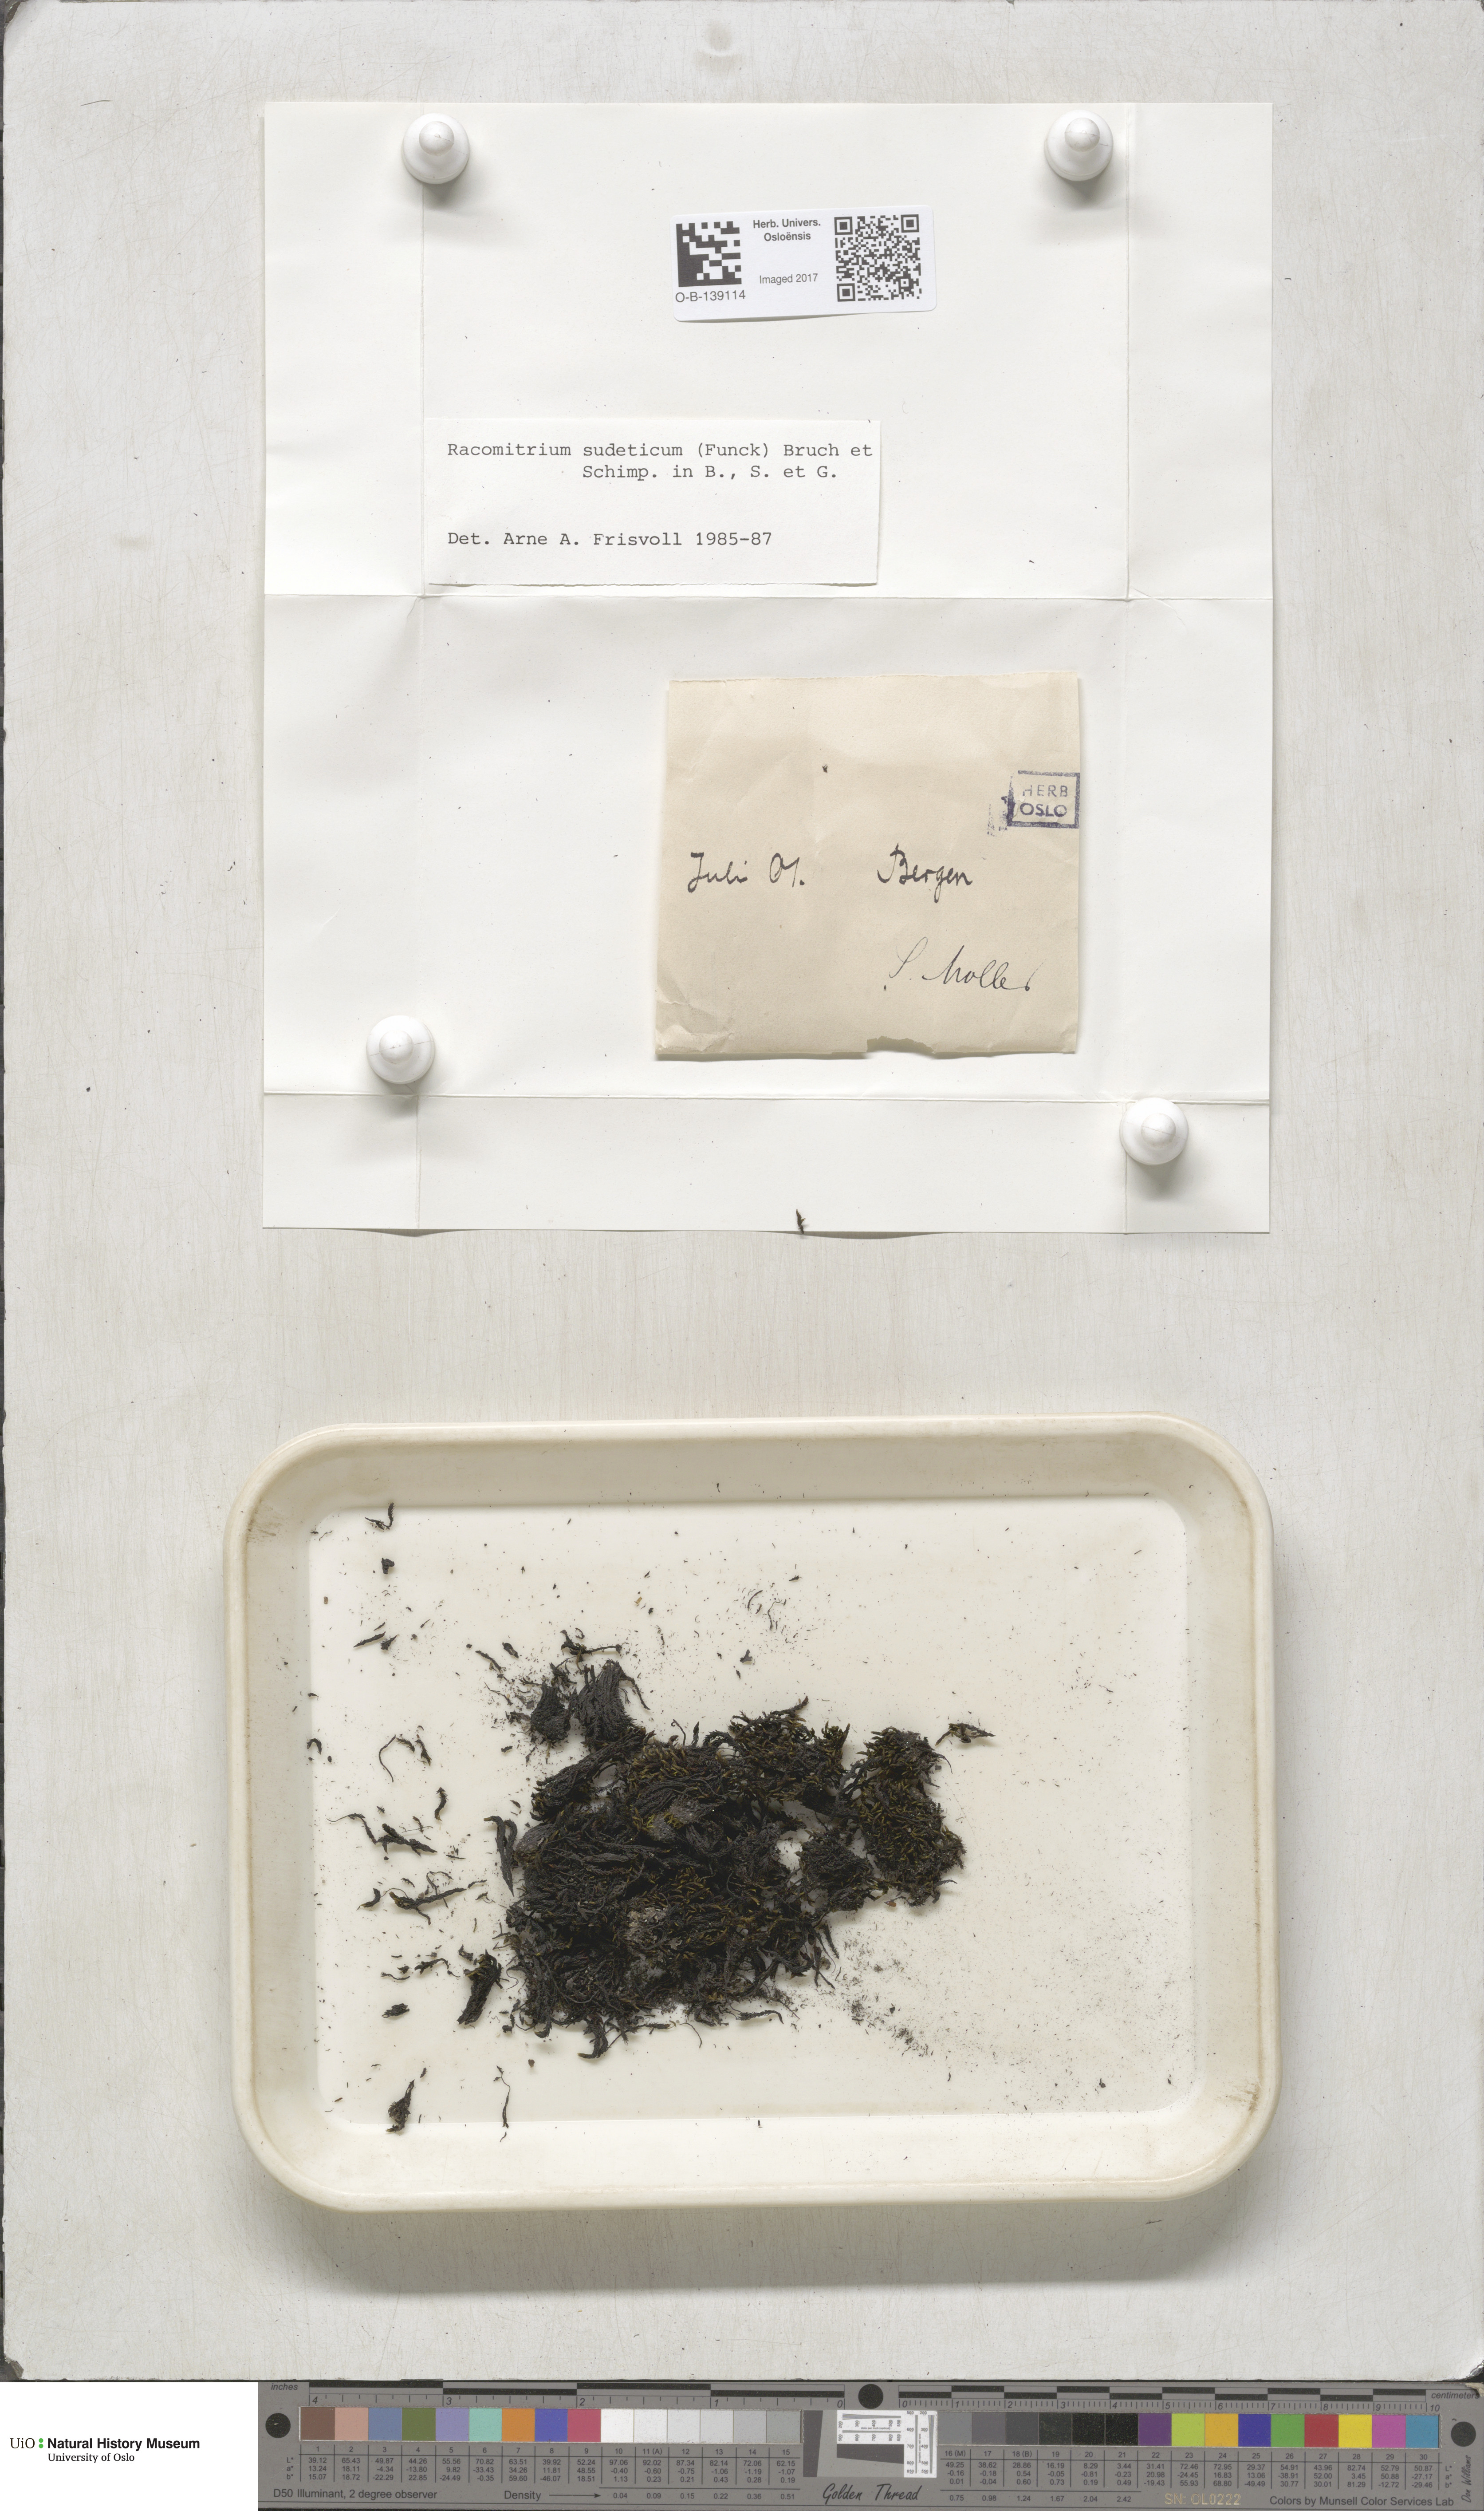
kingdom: Plantae
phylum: Bryophyta
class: Bryopsida
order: Grimmiales
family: Grimmiaceae
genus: Bucklandiella
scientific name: Bucklandiella sudetica
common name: Slender fringe-moss
